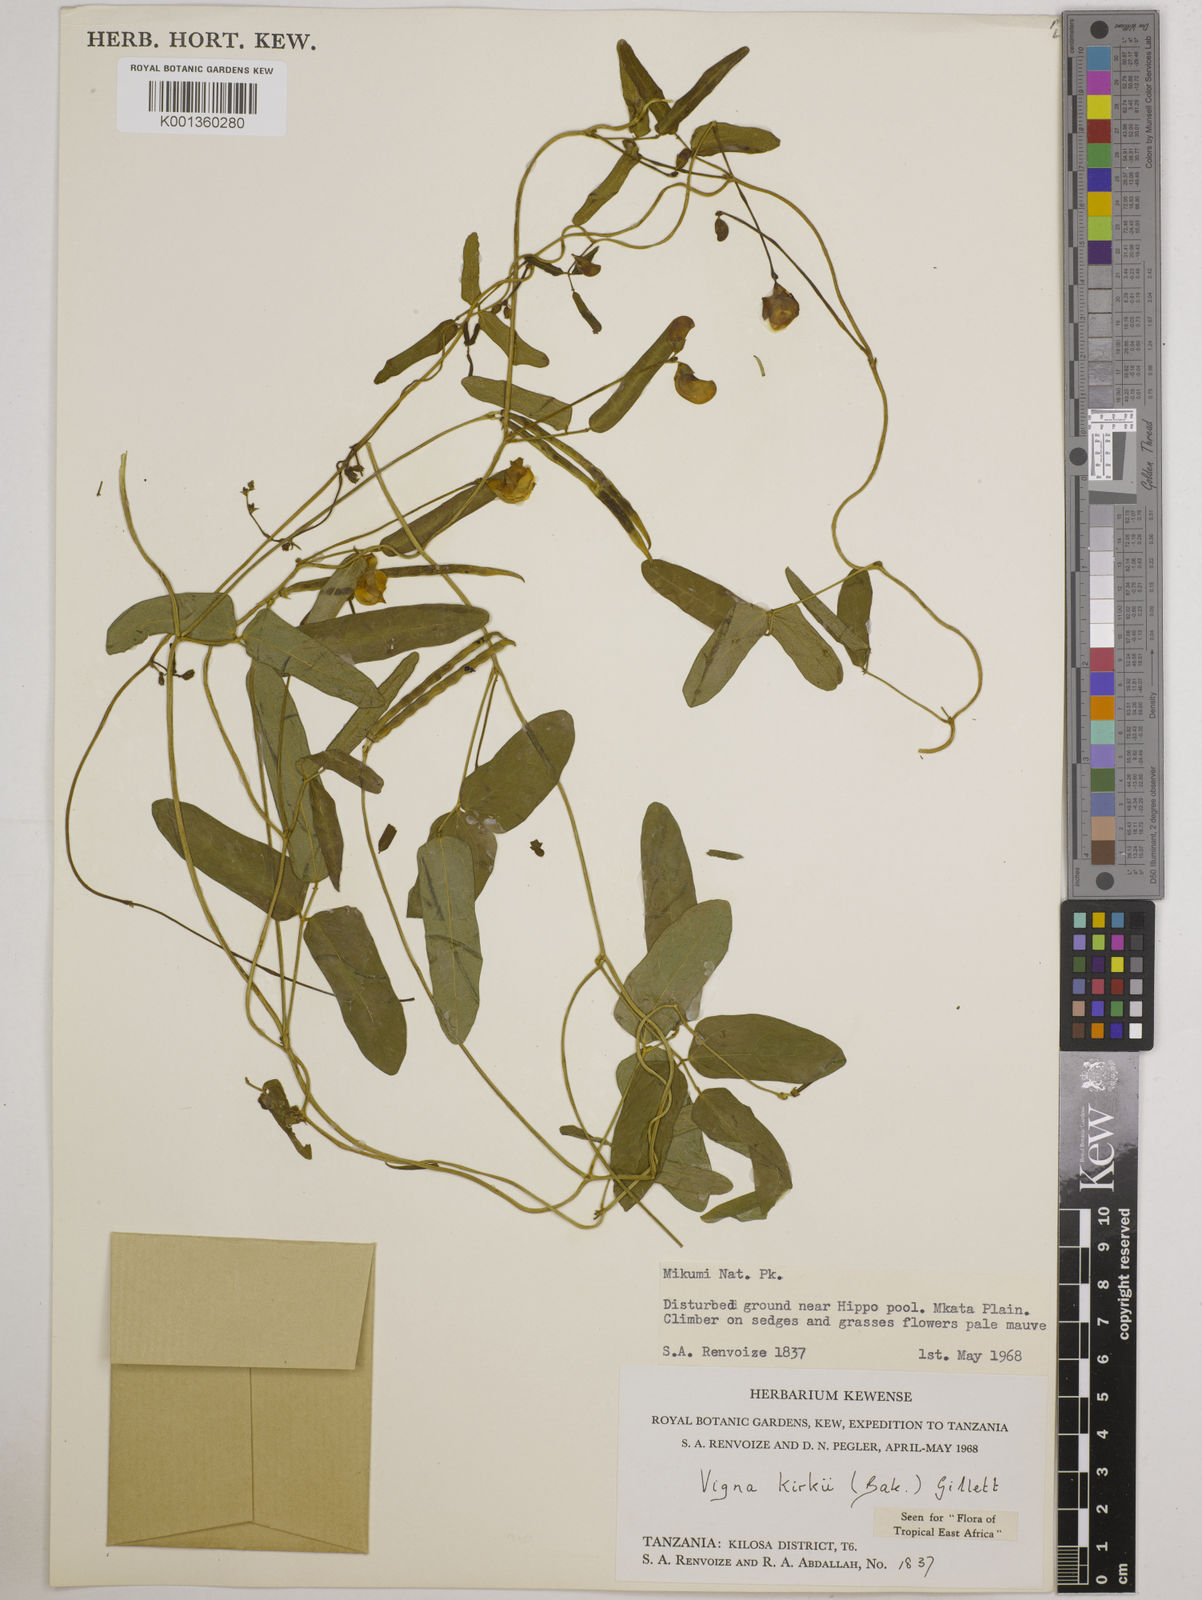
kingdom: Plantae
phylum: Tracheophyta
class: Magnoliopsida
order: Fabales
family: Fabaceae
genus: Vigna
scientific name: Vigna kirkii
